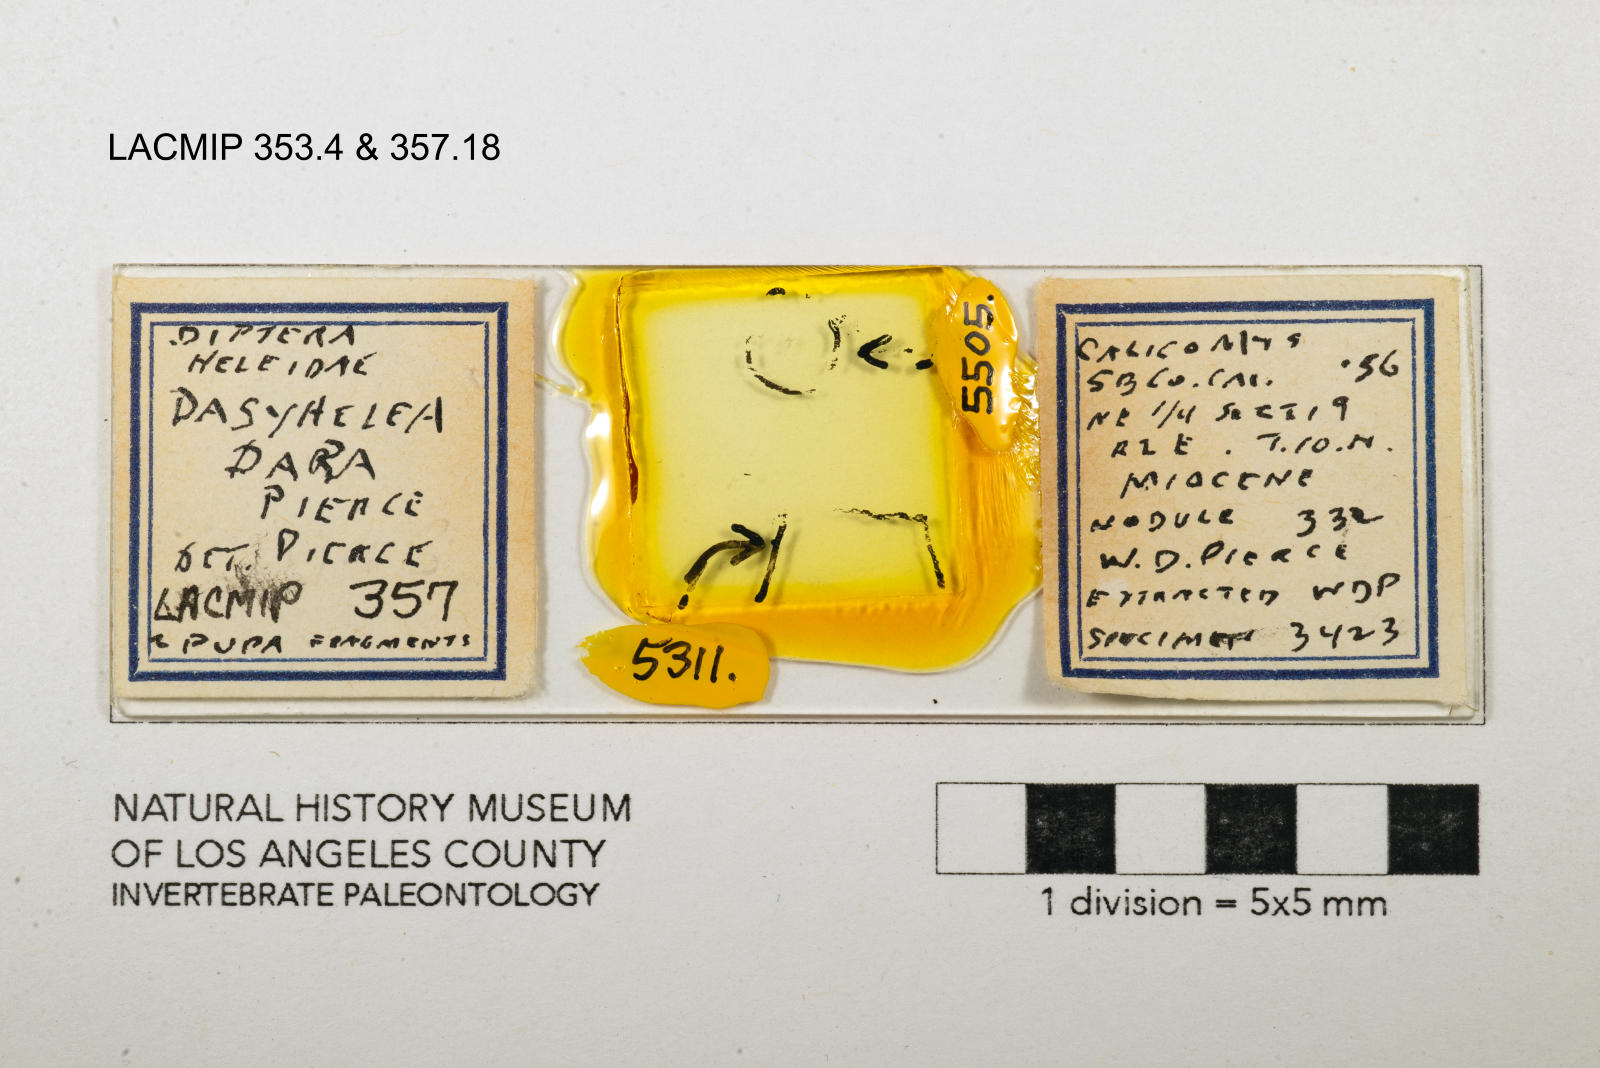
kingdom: Animalia
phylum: Arthropoda
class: Insecta
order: Diptera
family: Ceratopogonidae
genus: Dasyhelea
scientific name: Dasyhelea dara
